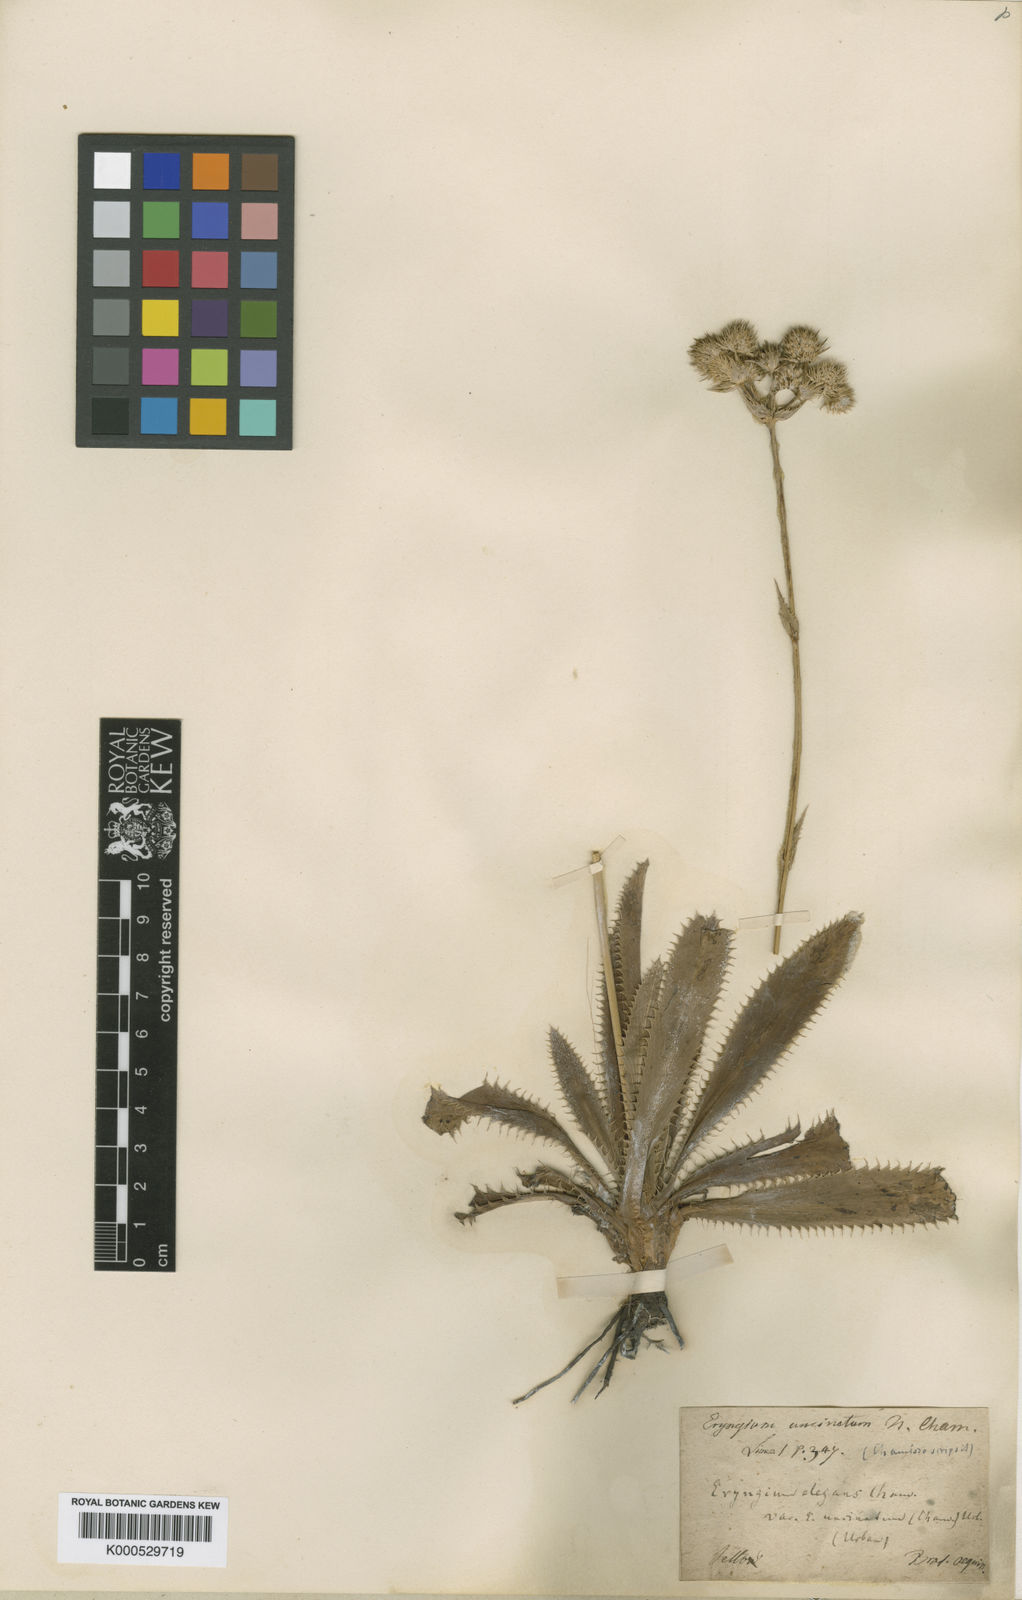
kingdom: Plantae
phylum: Tracheophyta
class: Magnoliopsida
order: Apiales
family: Apiaceae
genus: Eryngium
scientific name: Eryngium elegans
